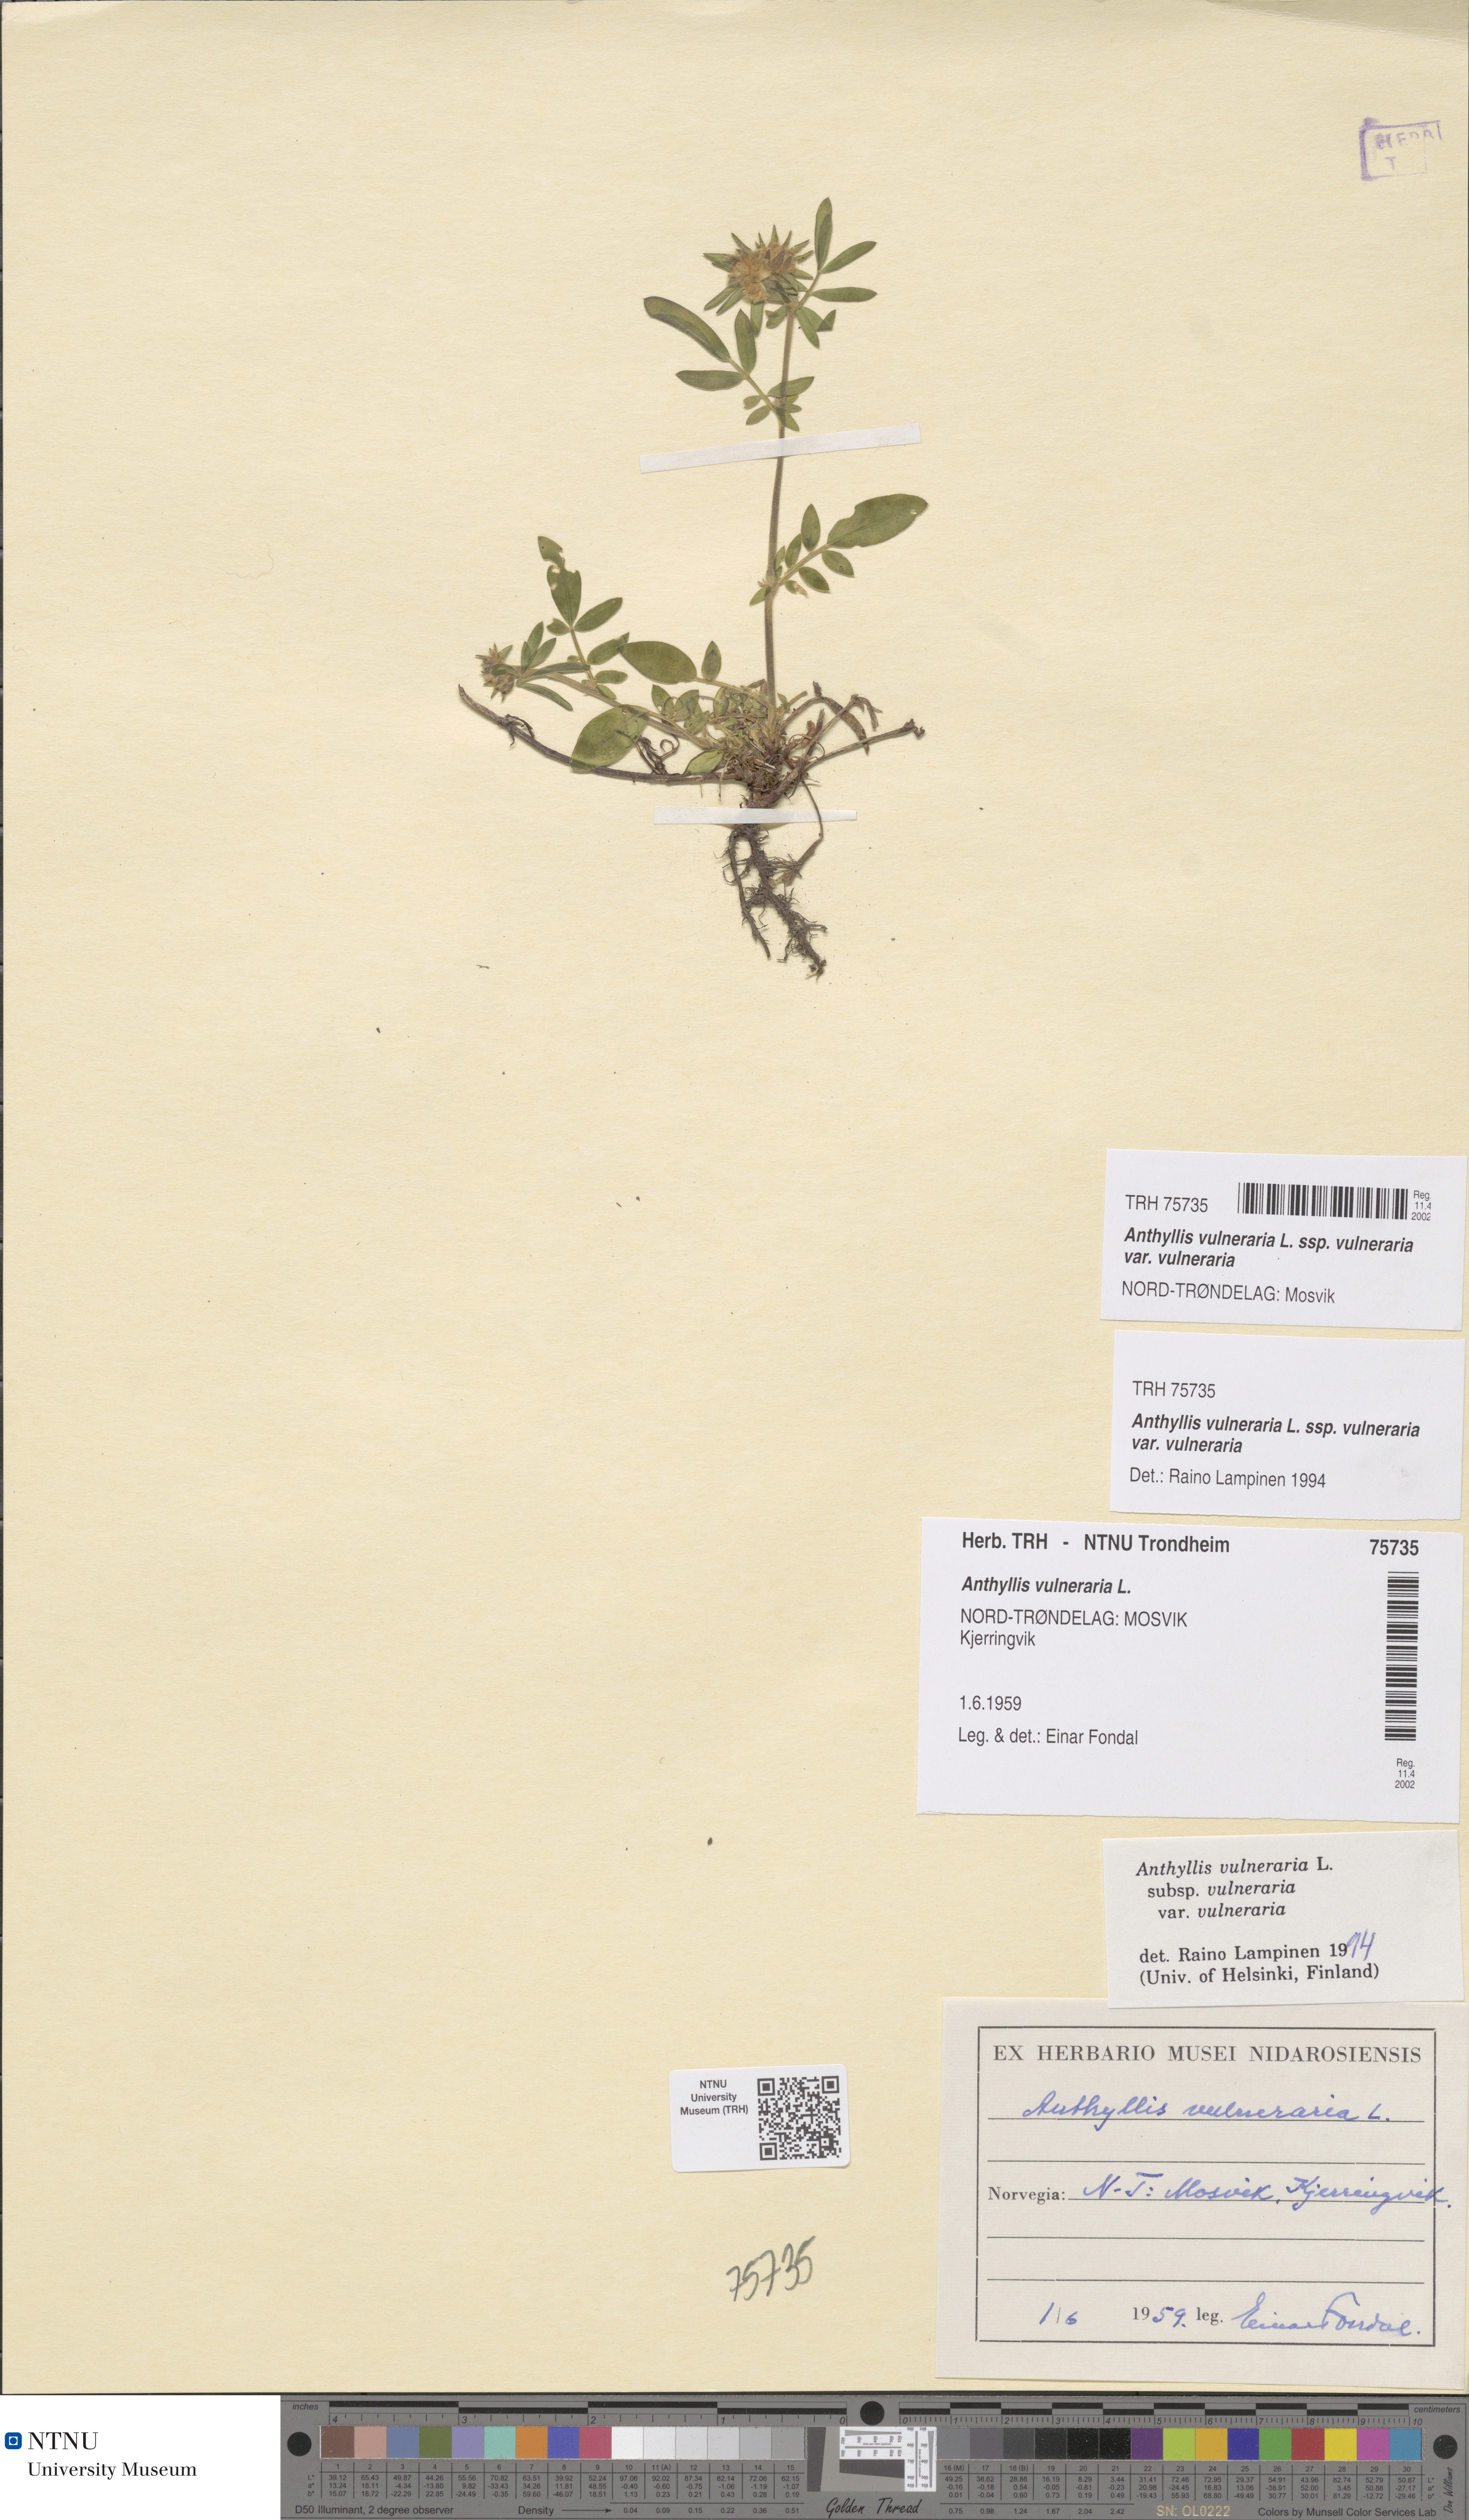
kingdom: Plantae
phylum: Tracheophyta
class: Magnoliopsida
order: Fabales
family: Fabaceae
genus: Anthyllis
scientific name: Anthyllis vulneraria
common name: Kidney vetch
